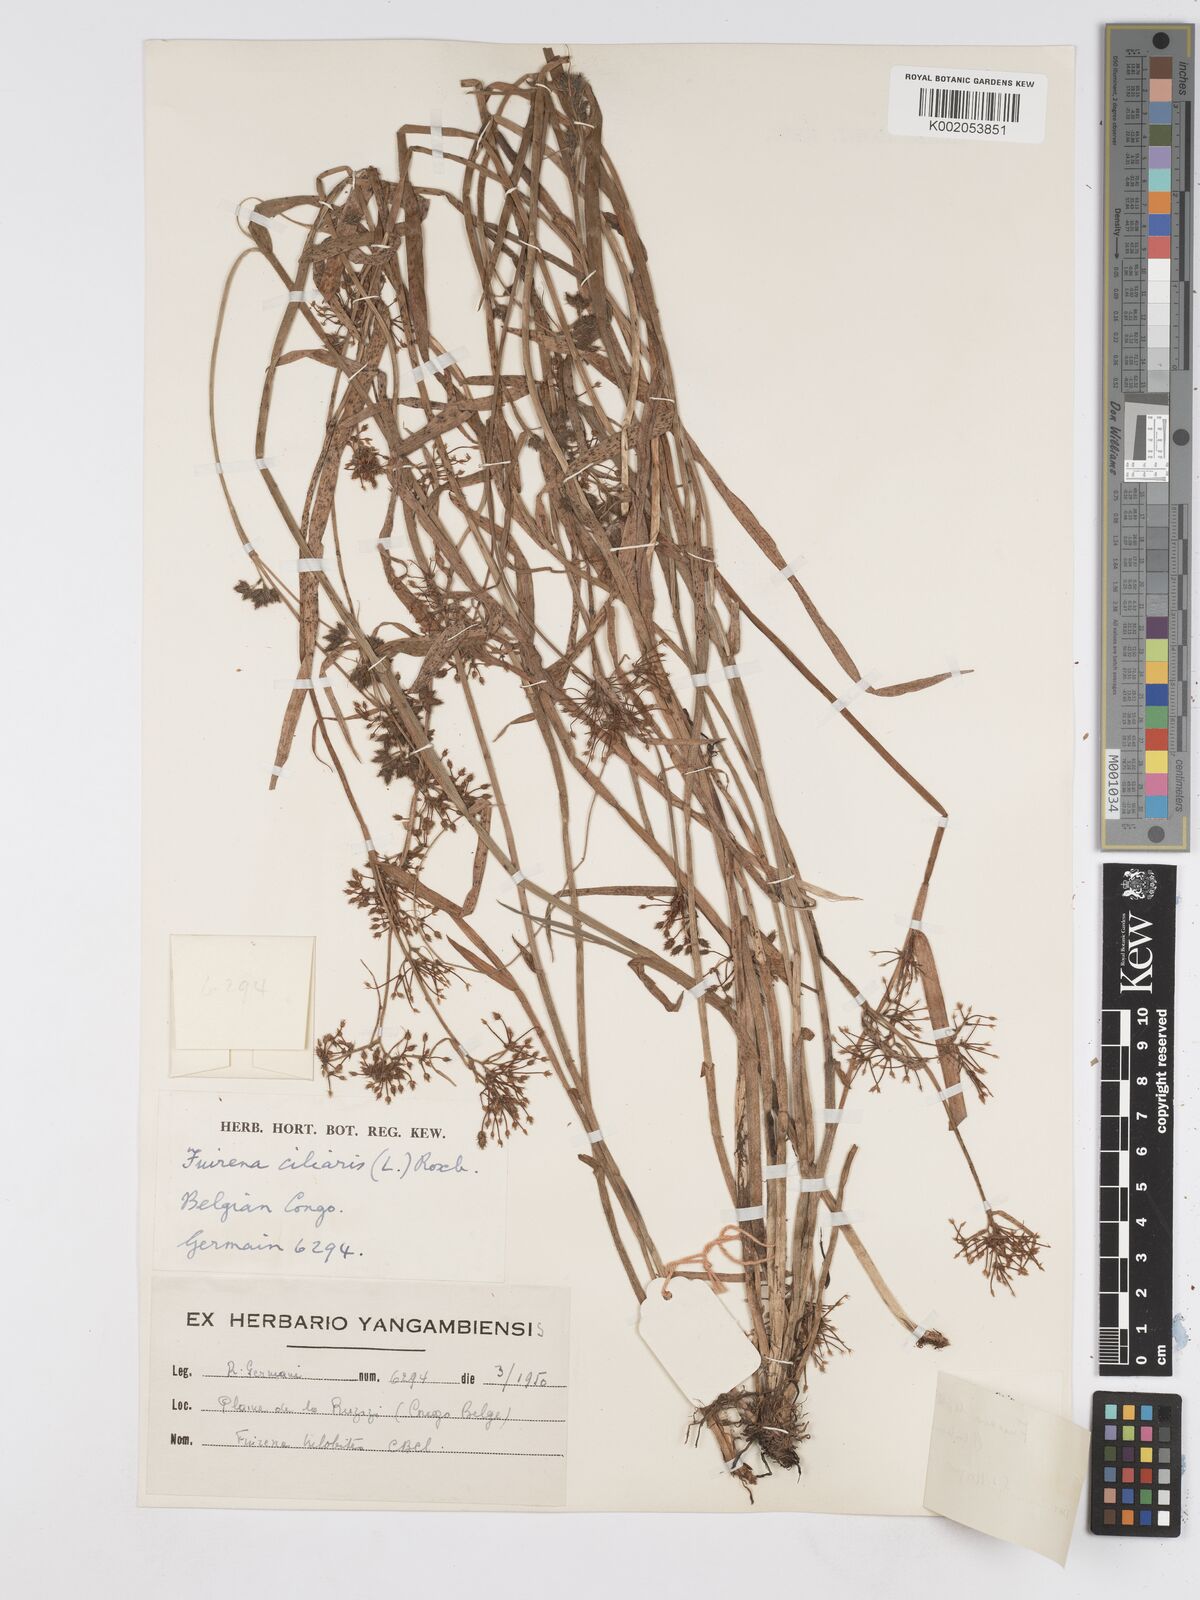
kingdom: Plantae
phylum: Tracheophyta
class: Liliopsida
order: Poales
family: Cyperaceae
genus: Fuirena
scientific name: Fuirena leptostachya
